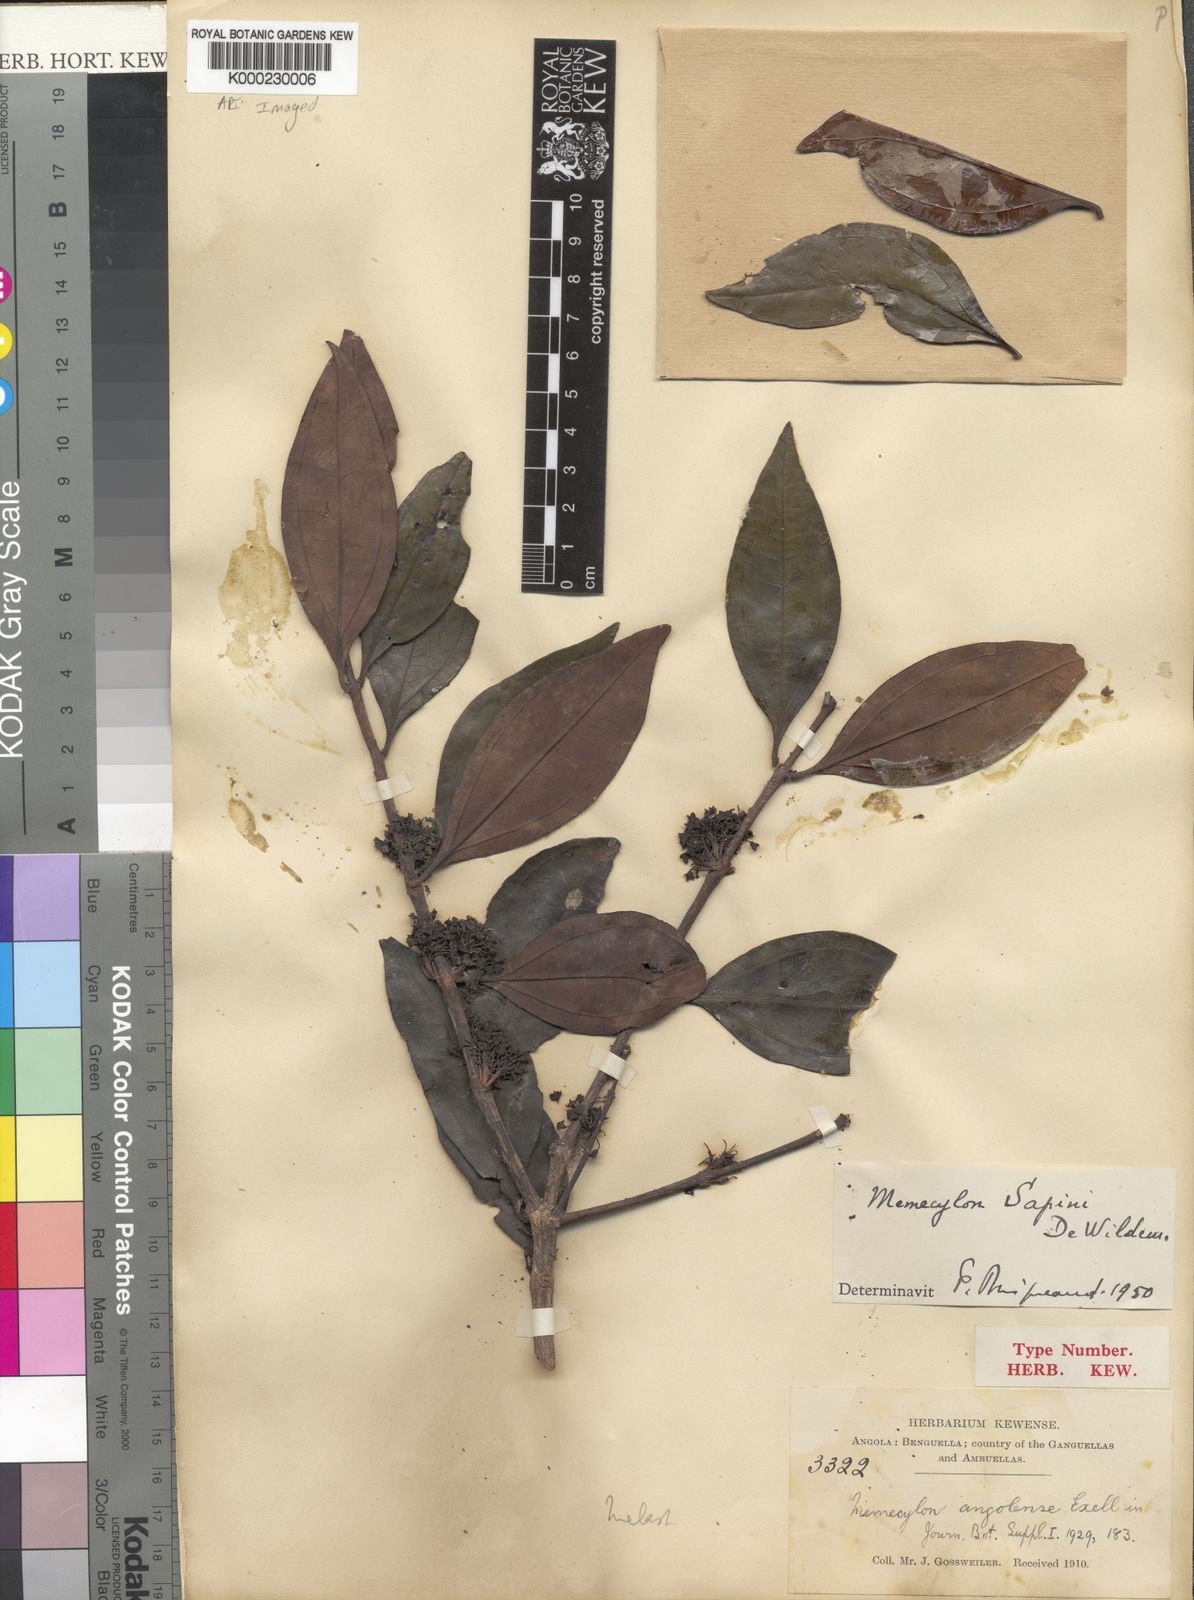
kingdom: Plantae
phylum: Tracheophyta
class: Magnoliopsida
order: Myrtales
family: Melastomataceae
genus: Warneckea
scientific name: Warneckea
